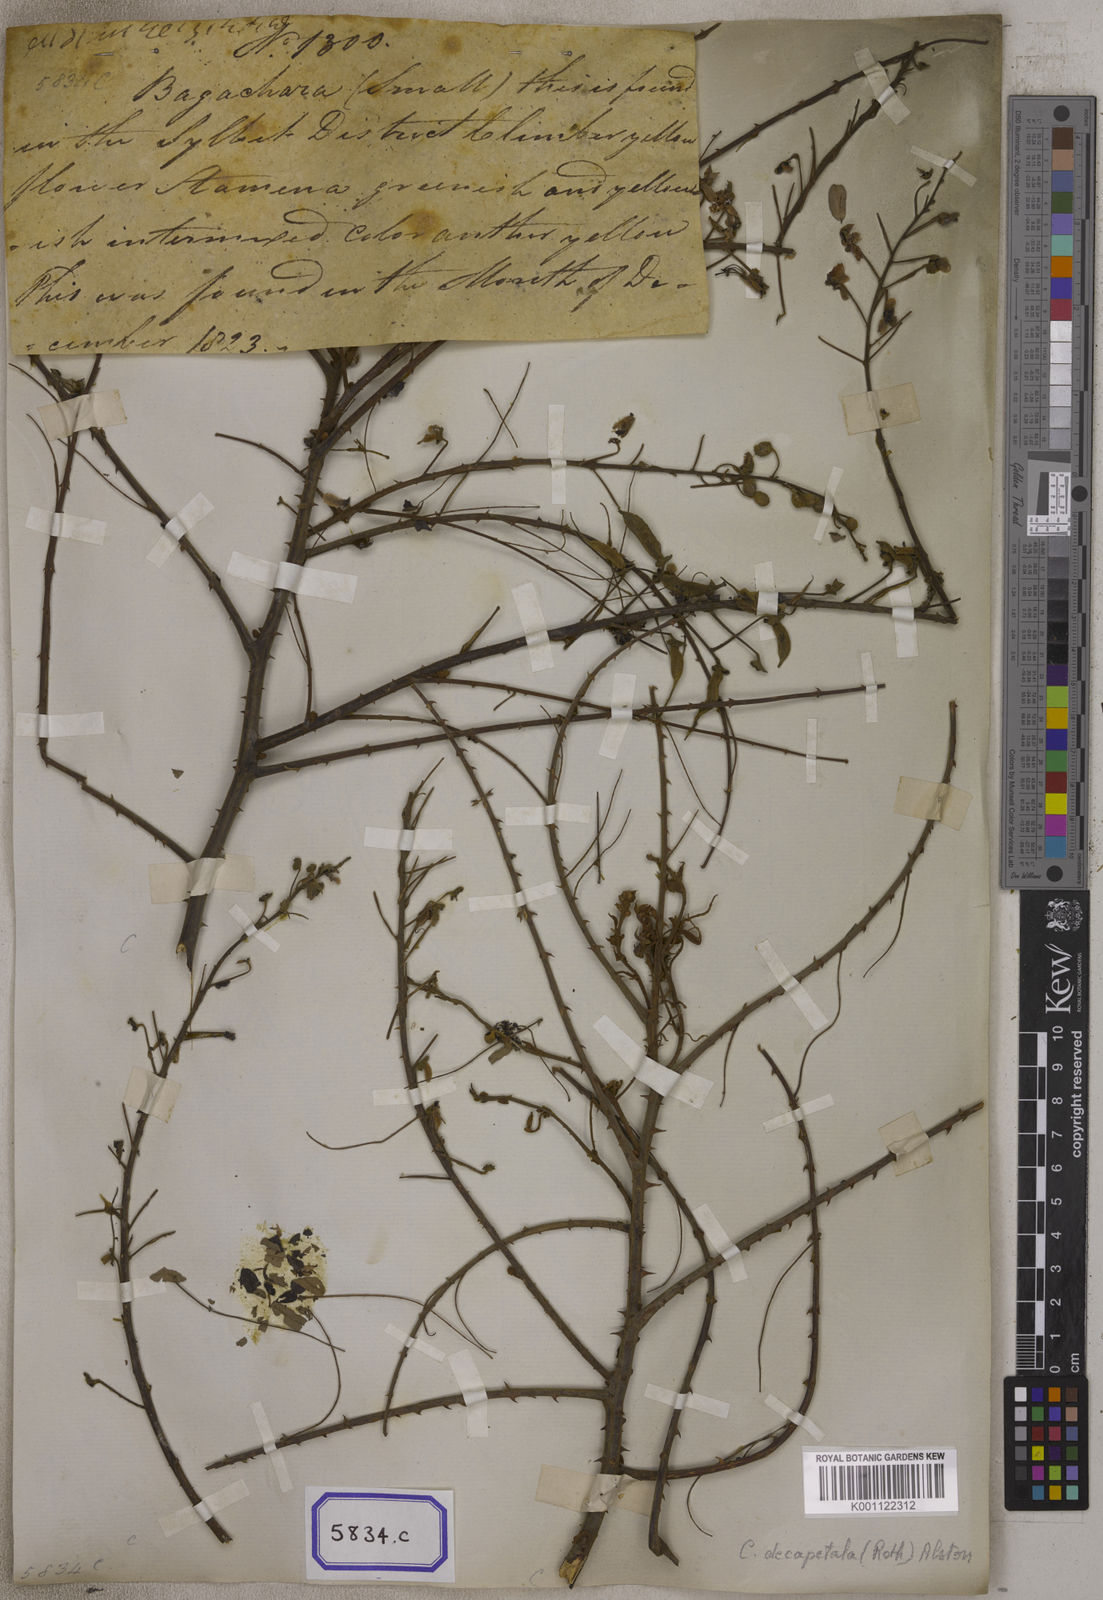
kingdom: Plantae
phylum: Tracheophyta
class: Magnoliopsida
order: Fabales
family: Fabaceae
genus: Caesalpinia
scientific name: Caesalpinia
